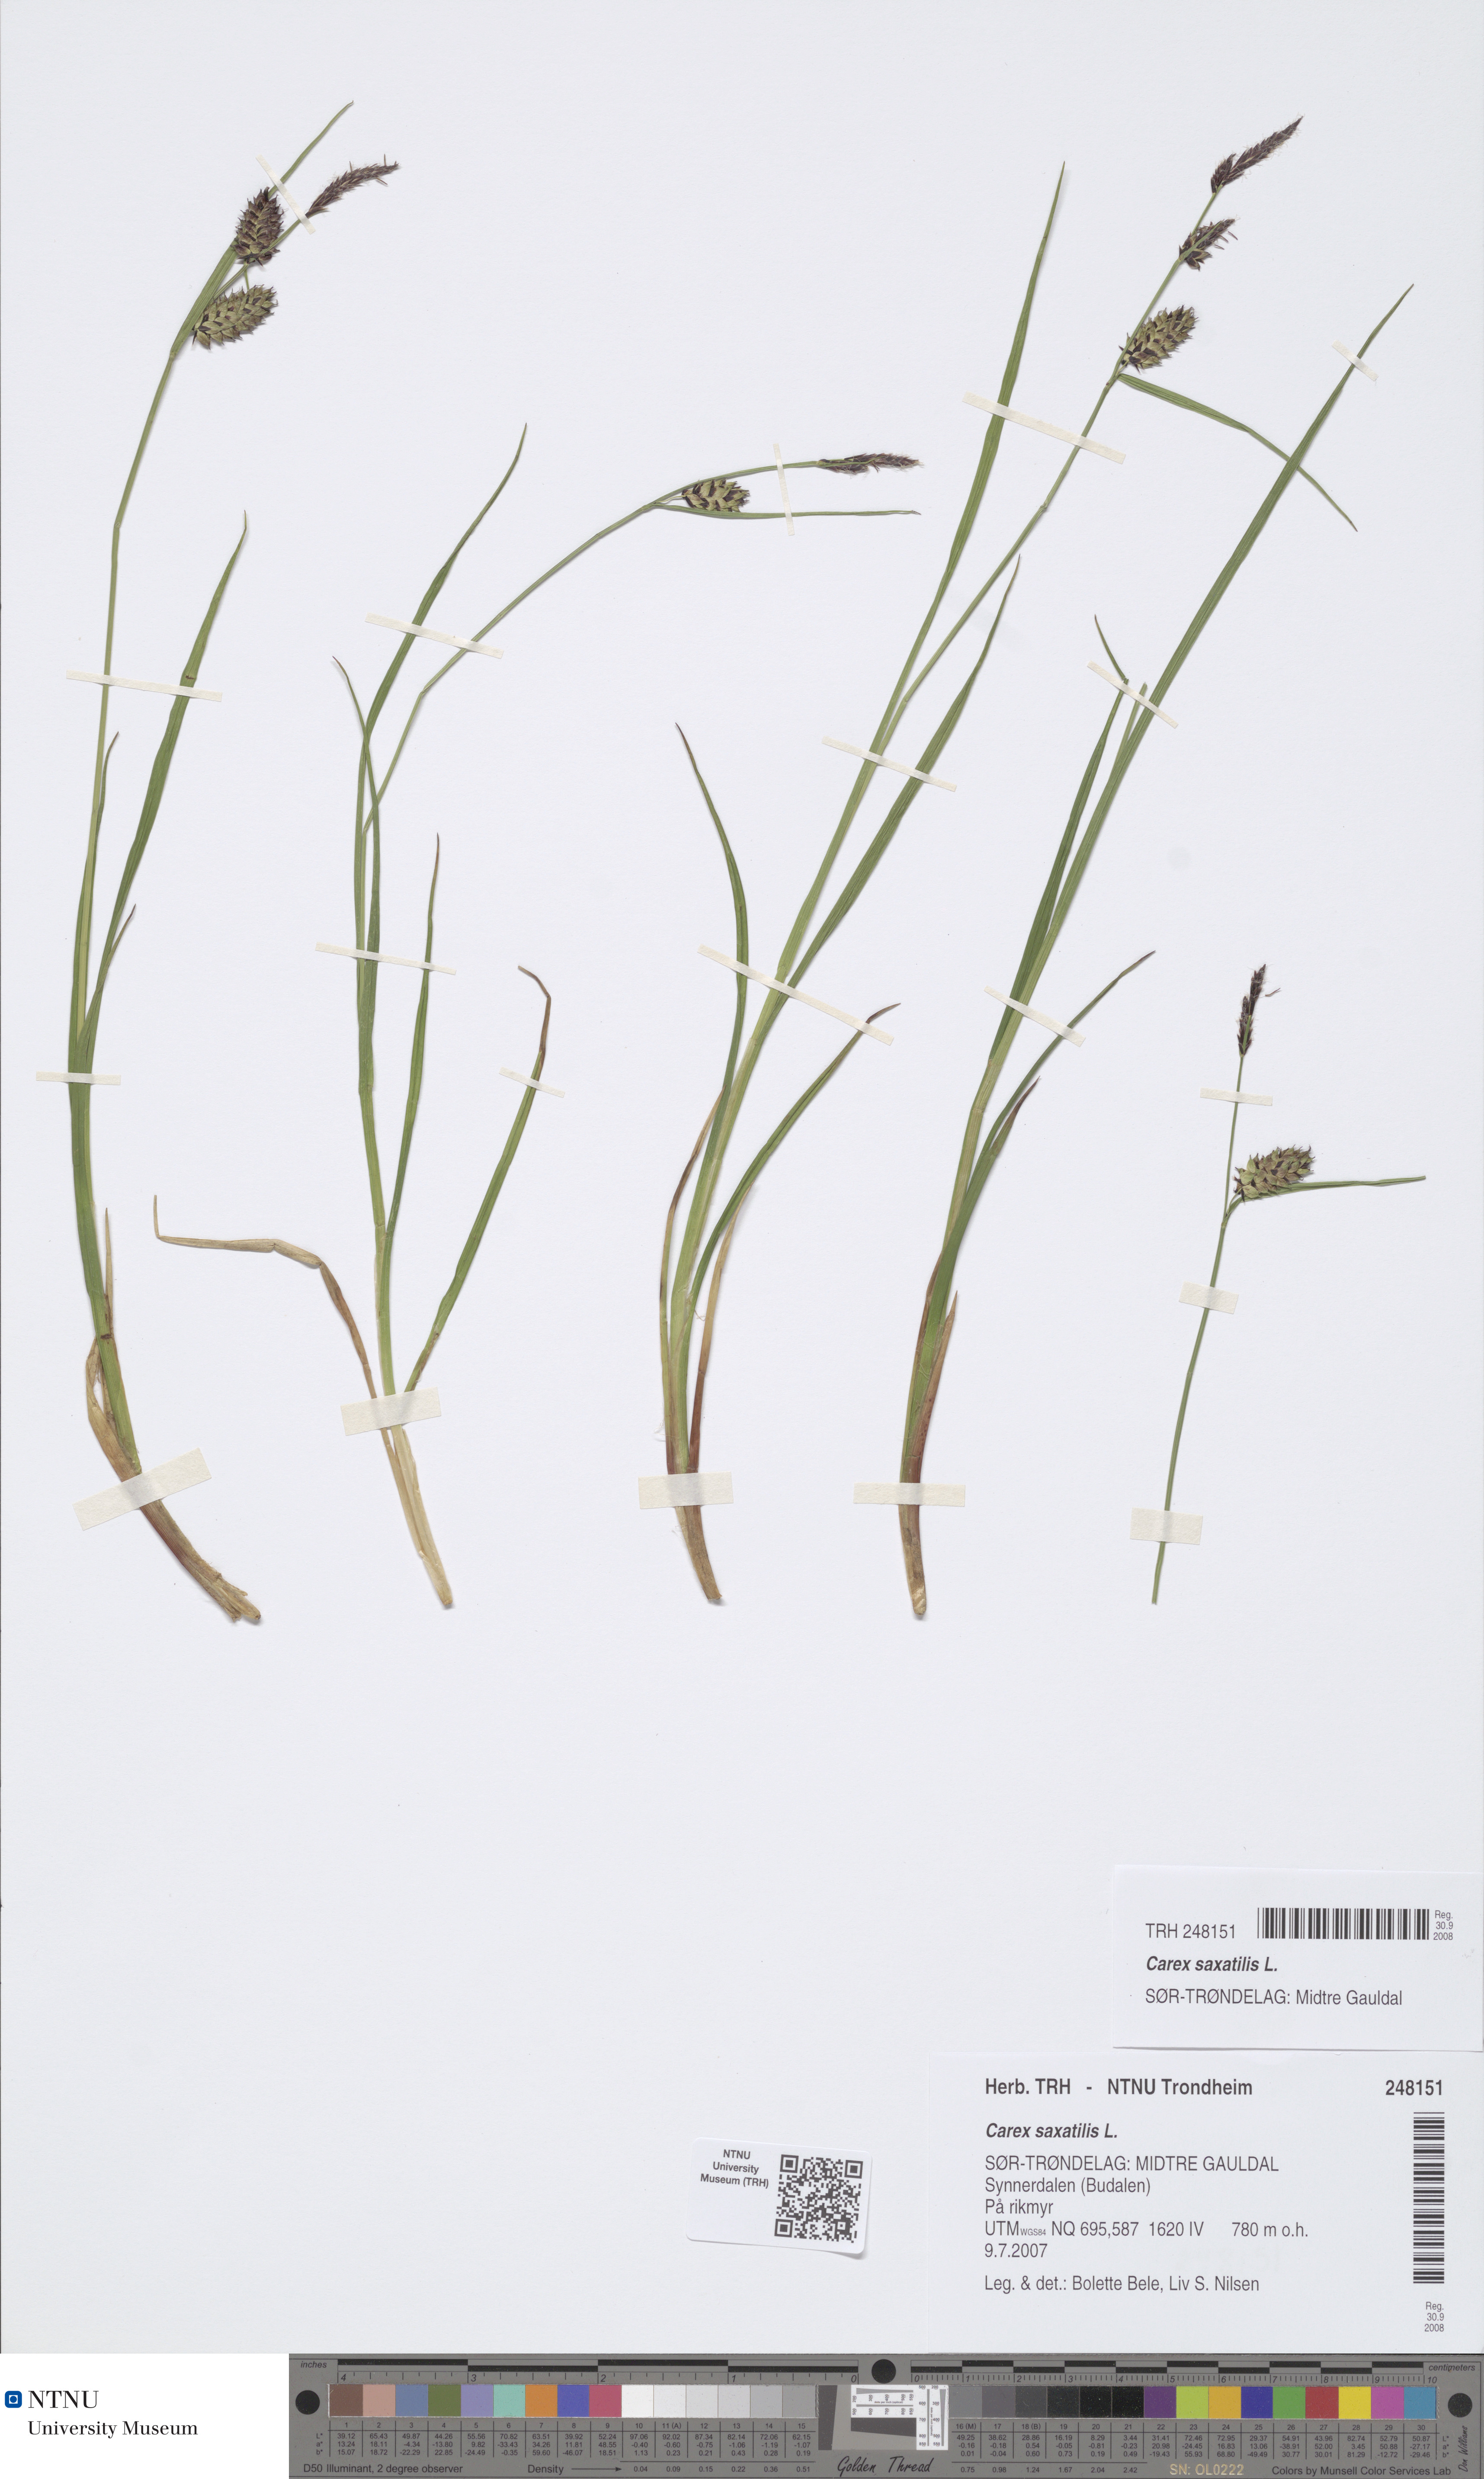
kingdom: Plantae
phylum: Tracheophyta
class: Liliopsida
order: Poales
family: Cyperaceae
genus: Carex
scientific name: Carex grahamii
